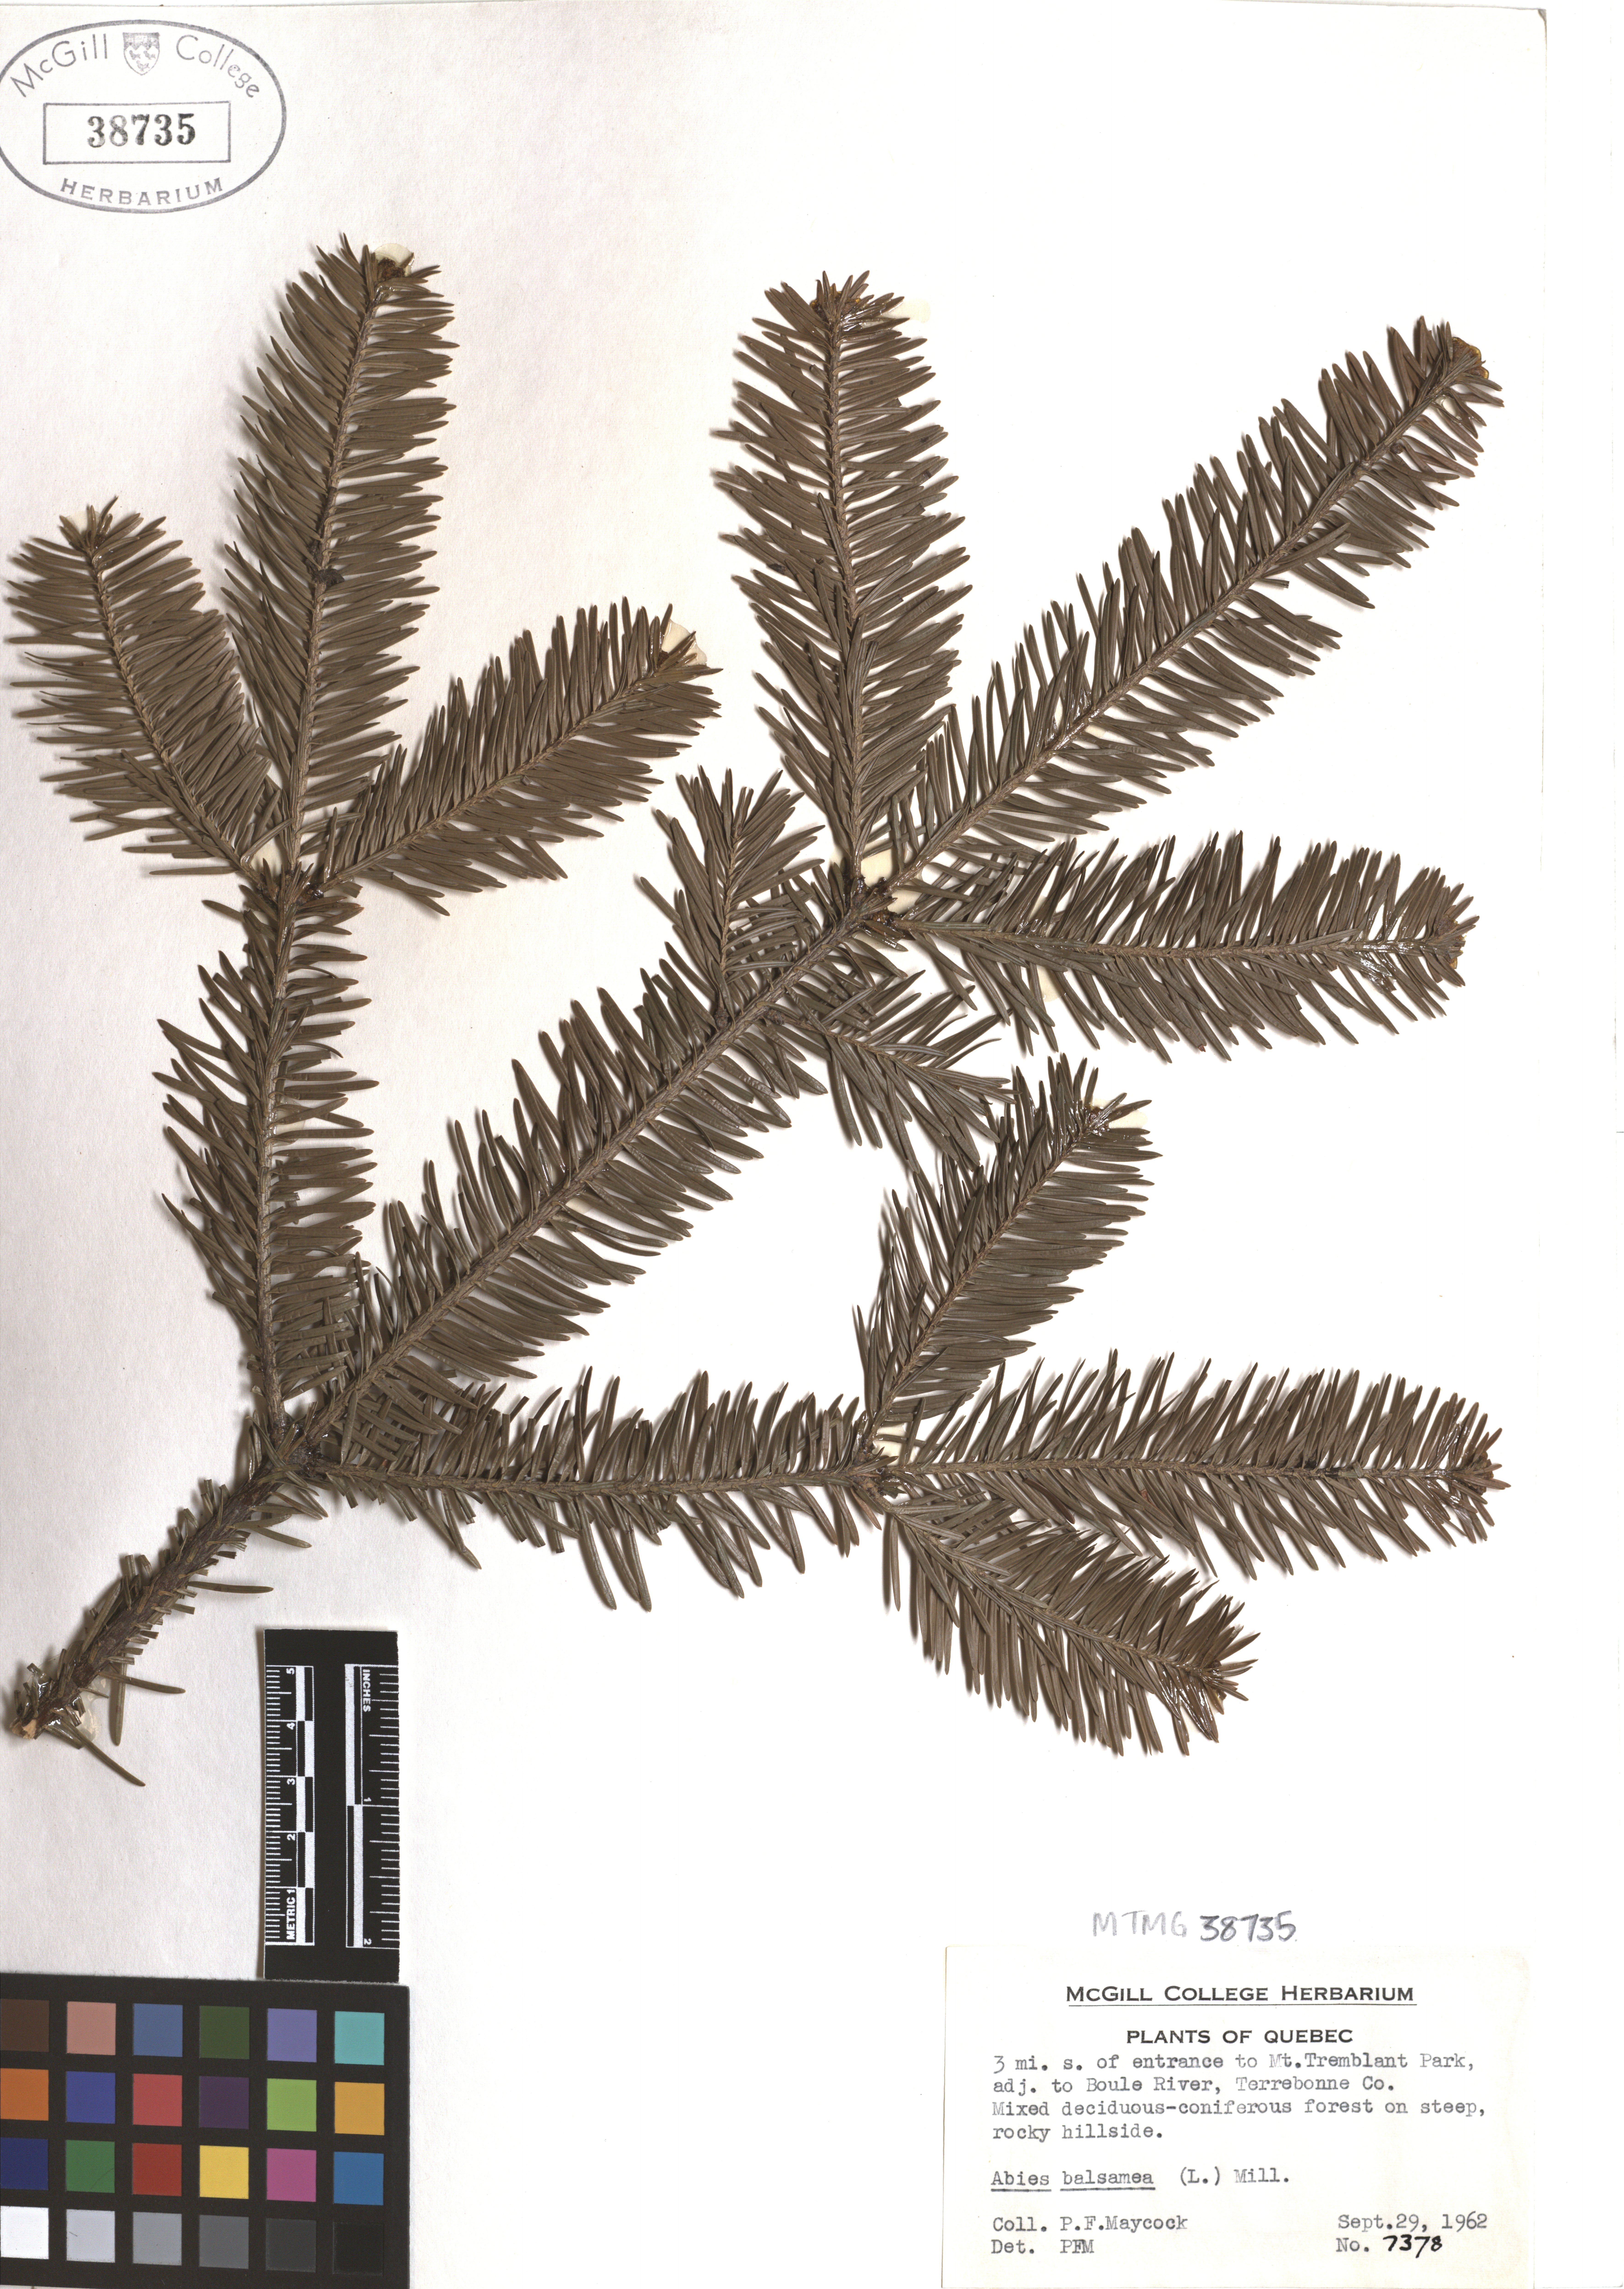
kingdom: Plantae
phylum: Tracheophyta
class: Pinopsida
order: Pinales
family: Pinaceae
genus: Abies
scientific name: Abies balsamea
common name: Balsam fir
